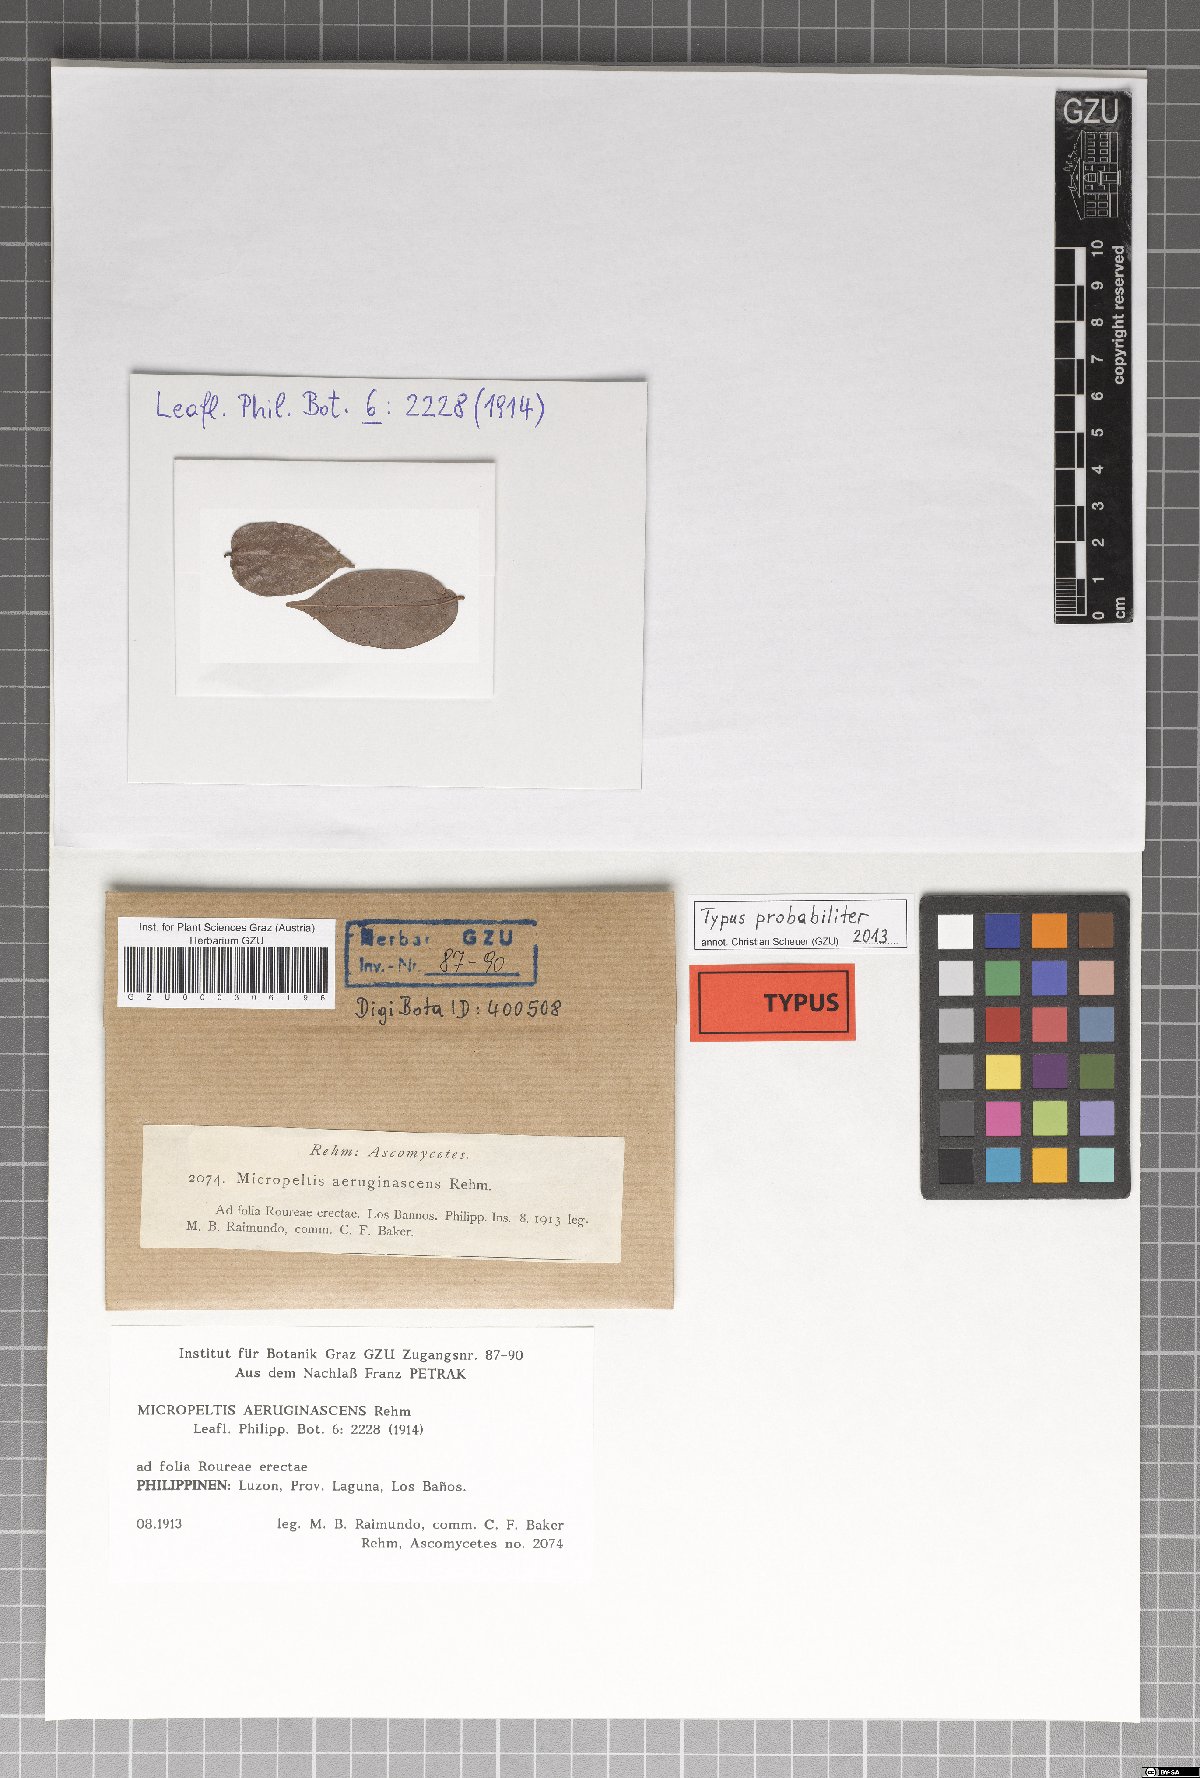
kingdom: Fungi
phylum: Ascomycota
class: Dothideomycetes
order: Mycosphaerellales
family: Schizothyriaceae
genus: Didymopeltis
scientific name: Didymopeltis applanata
